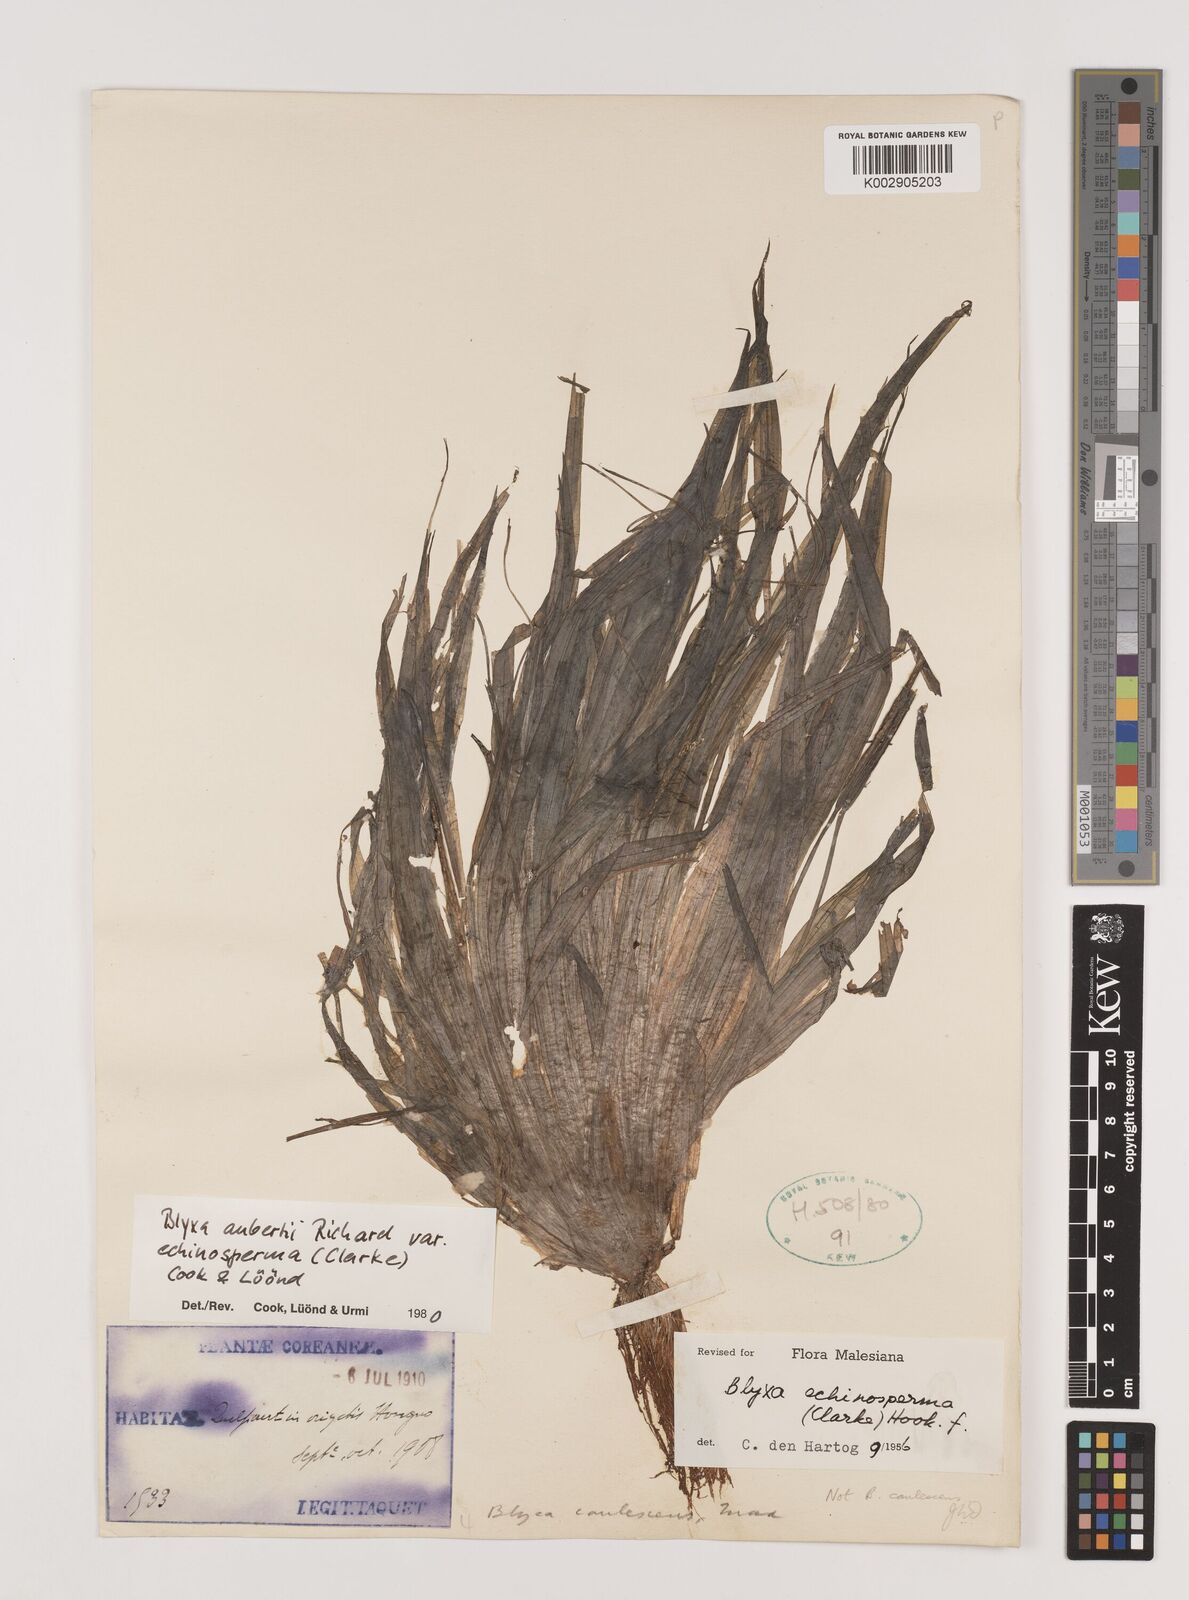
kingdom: Plantae
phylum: Tracheophyta
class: Liliopsida
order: Alismatales
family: Hydrocharitaceae
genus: Blyxa
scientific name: Blyxa echinosperma
